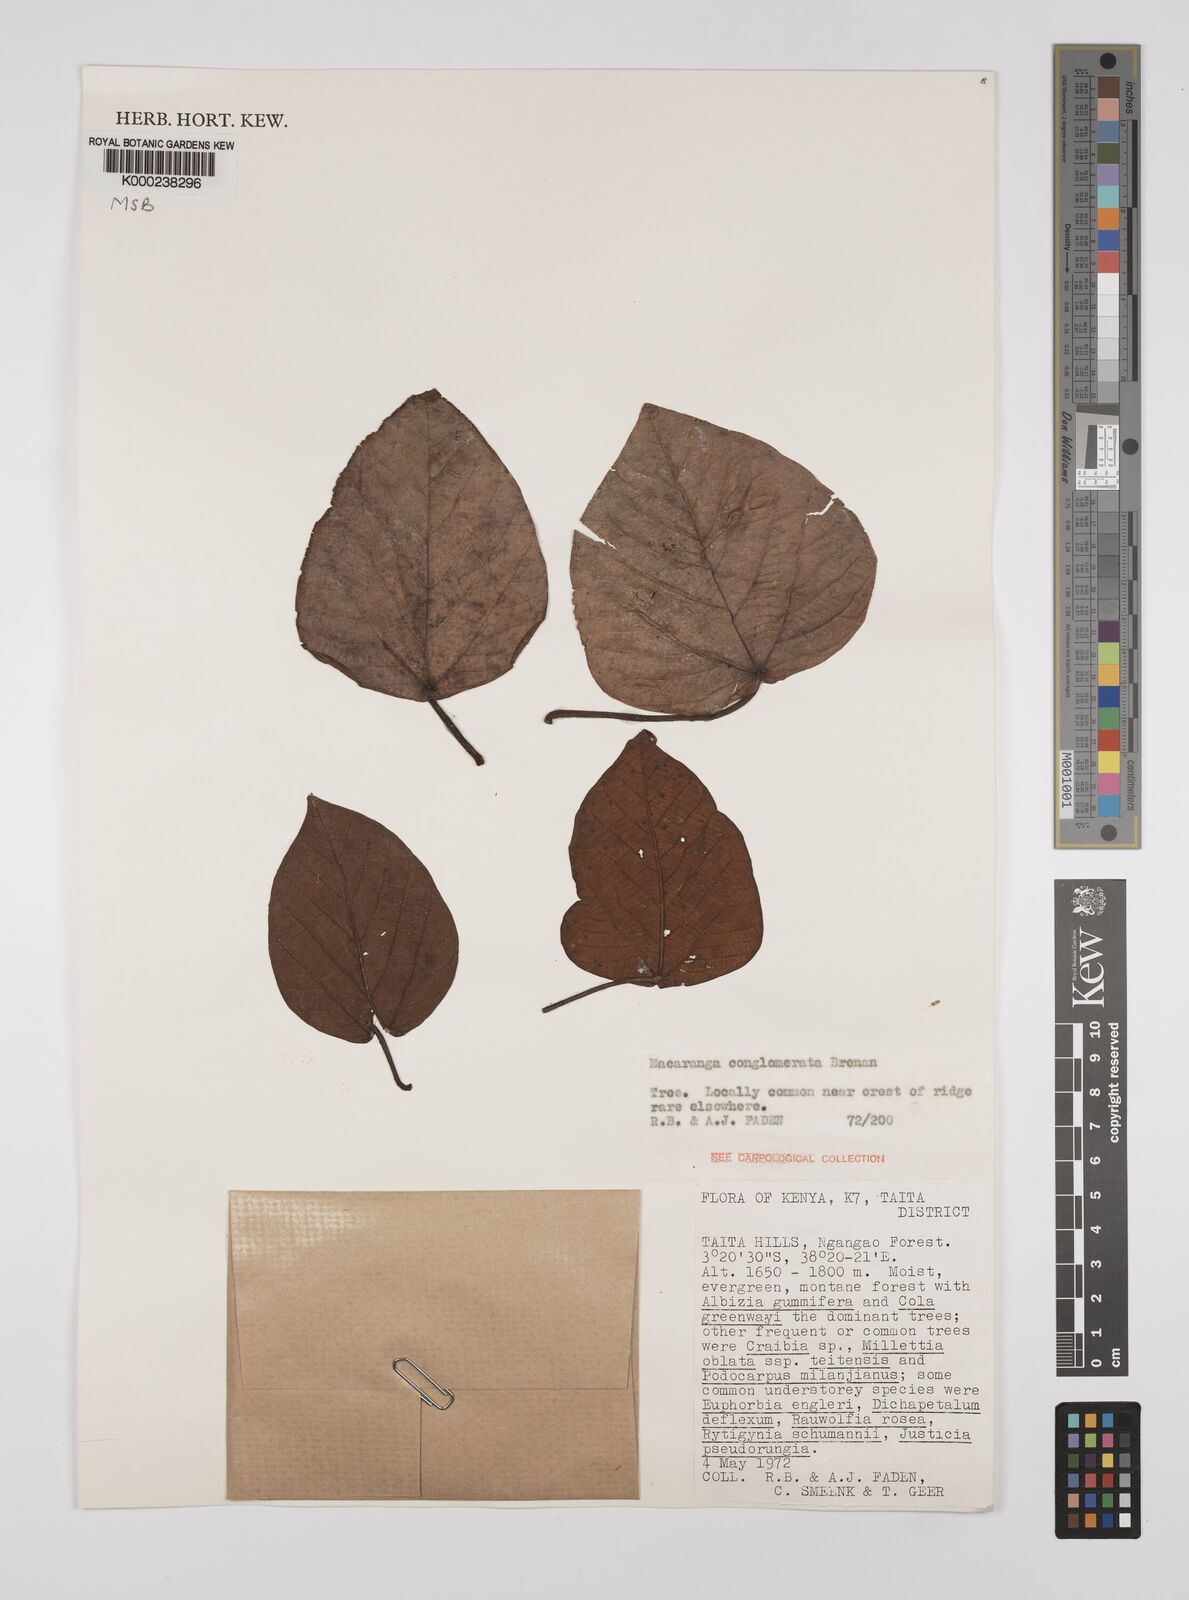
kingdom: Plantae
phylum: Tracheophyta
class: Magnoliopsida
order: Malpighiales
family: Euphorbiaceae
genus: Macaranga
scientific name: Macaranga conglomerata
